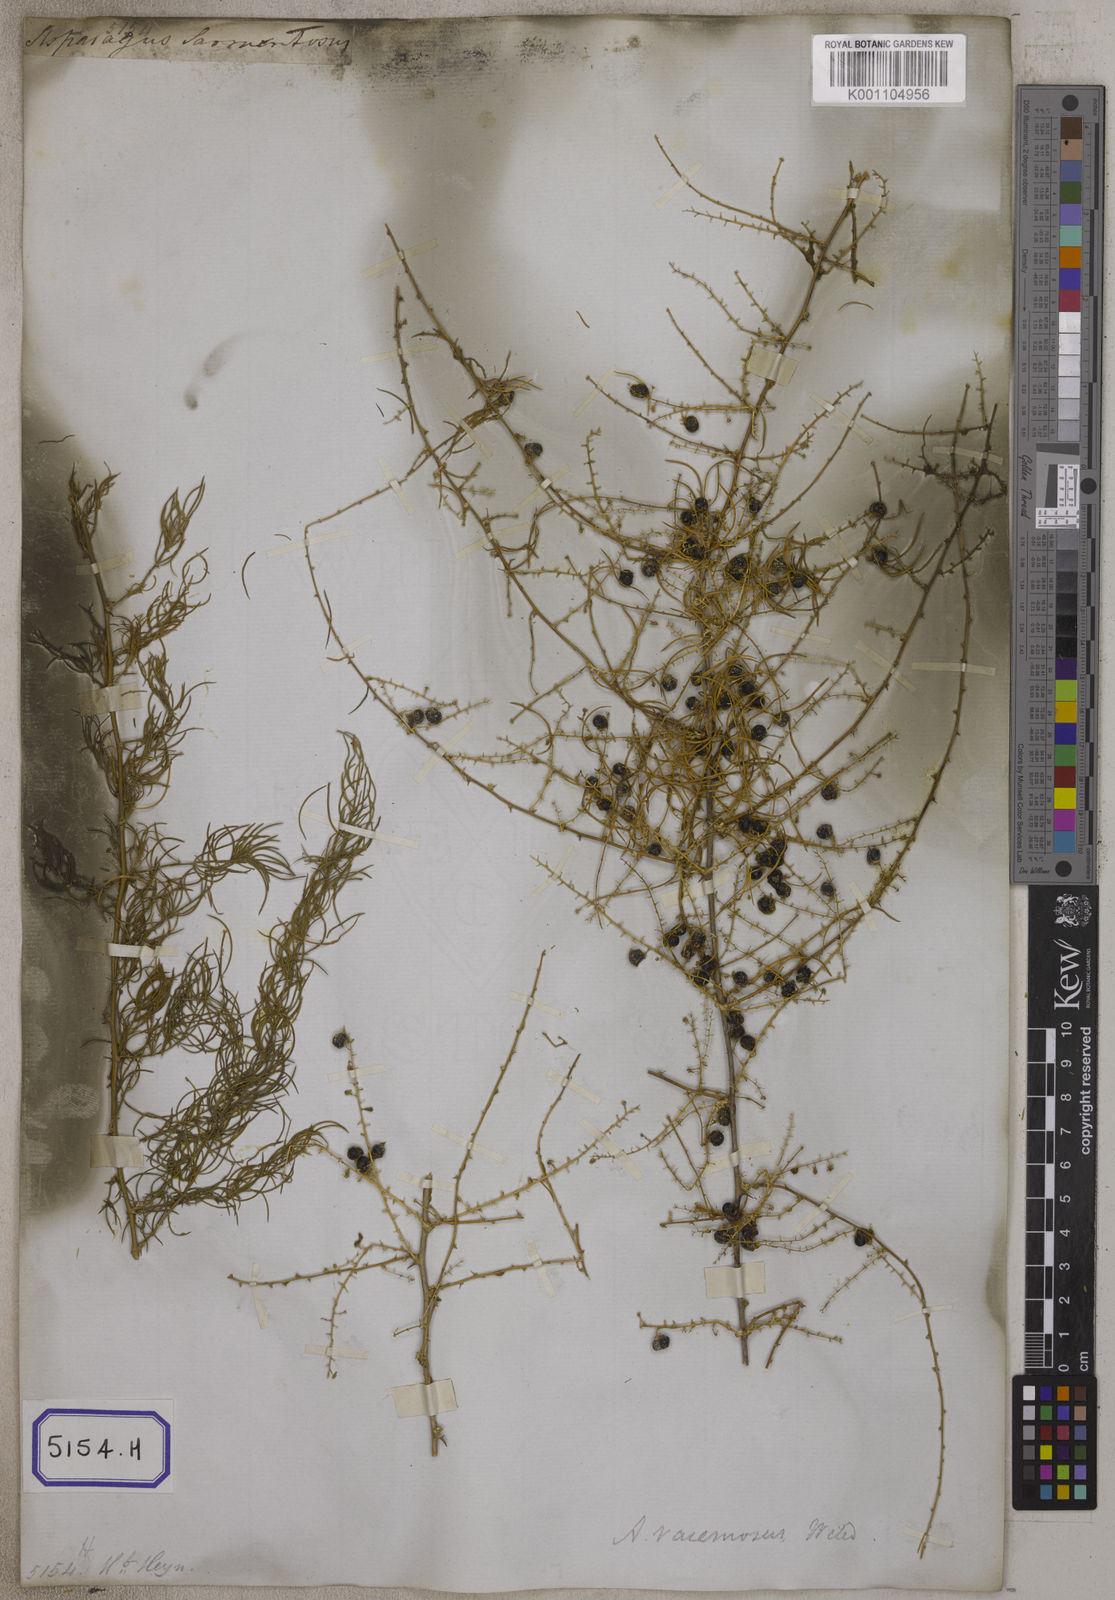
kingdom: Plantae
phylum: Tracheophyta
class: Liliopsida
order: Asparagales
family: Asparagaceae
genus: Asparagus
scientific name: Asparagus
